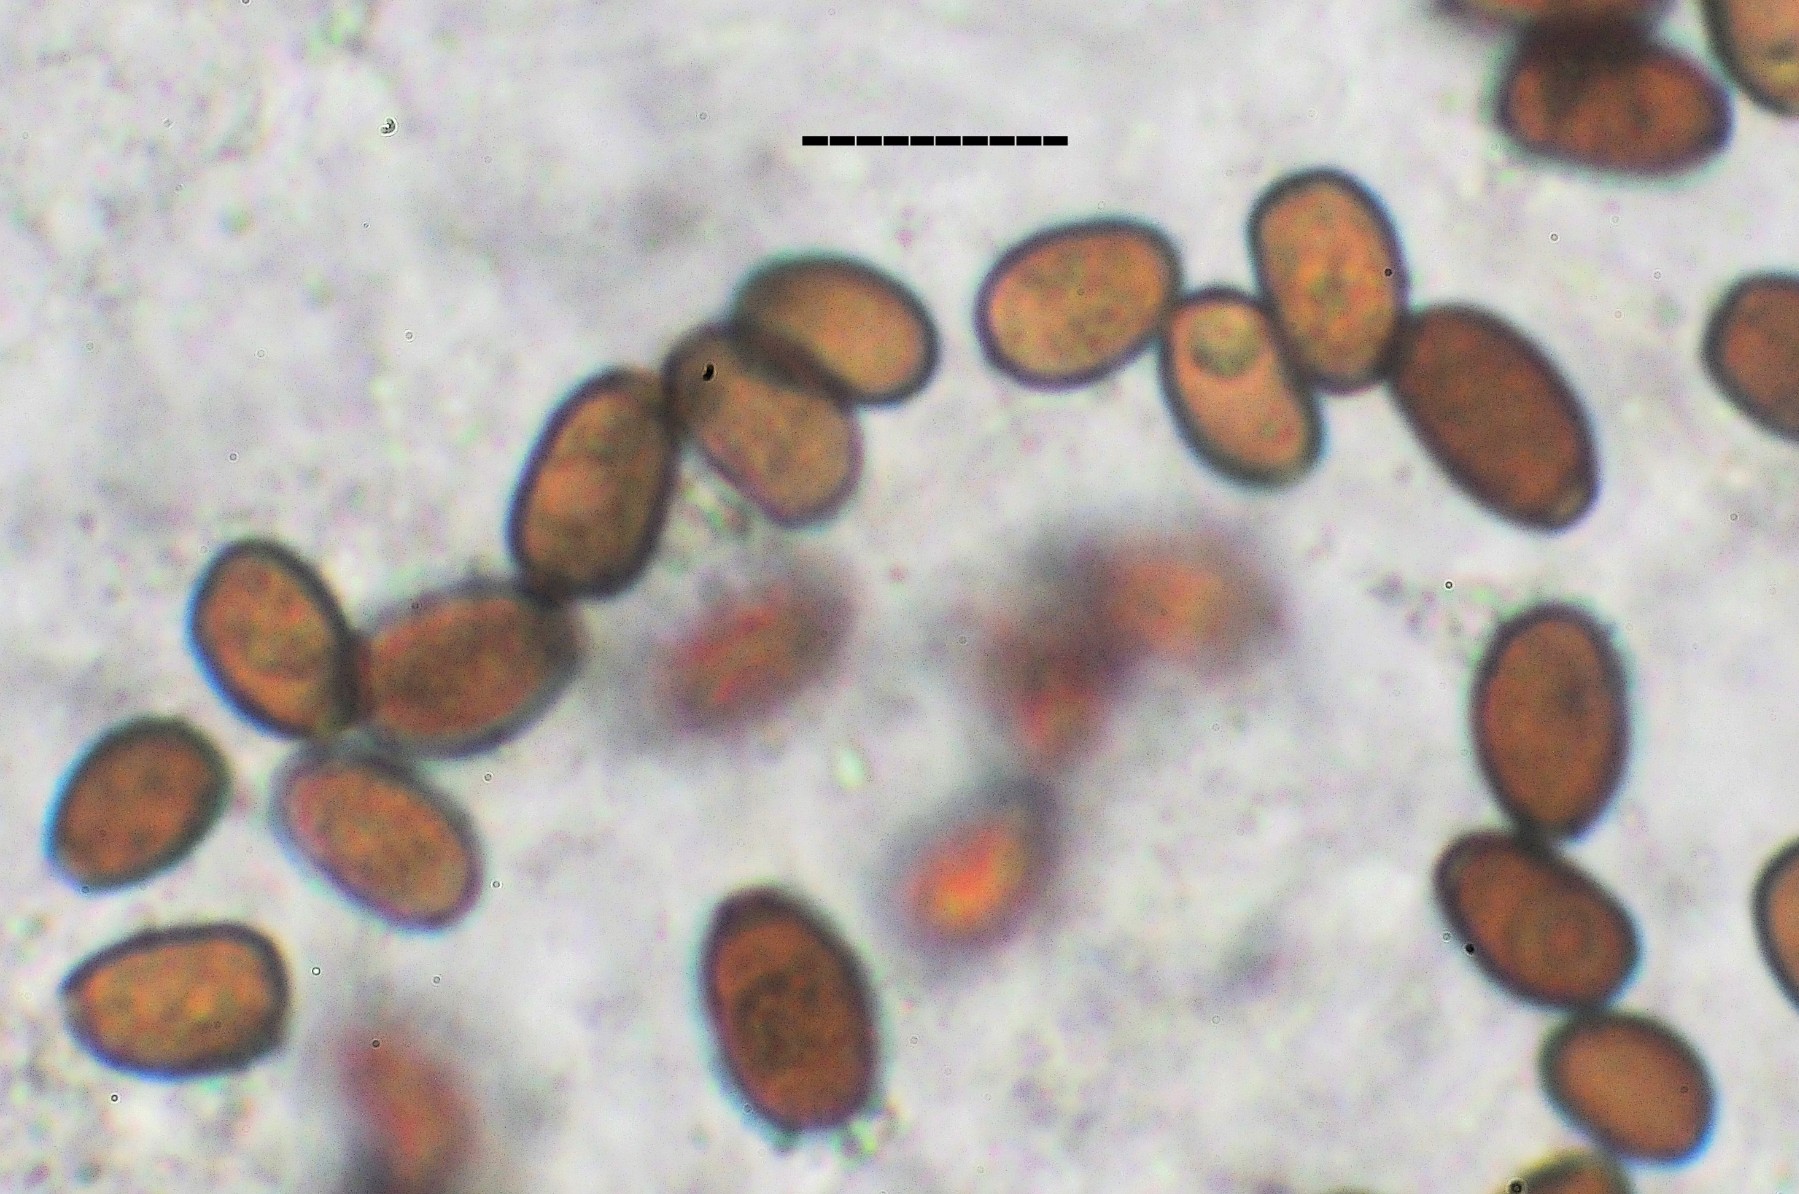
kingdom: Fungi
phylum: Basidiomycota
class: Agaricomycetes
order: Agaricales
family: Psathyrellaceae
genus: Coprinellus
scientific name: Coprinellus radians
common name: grynet blækhat
